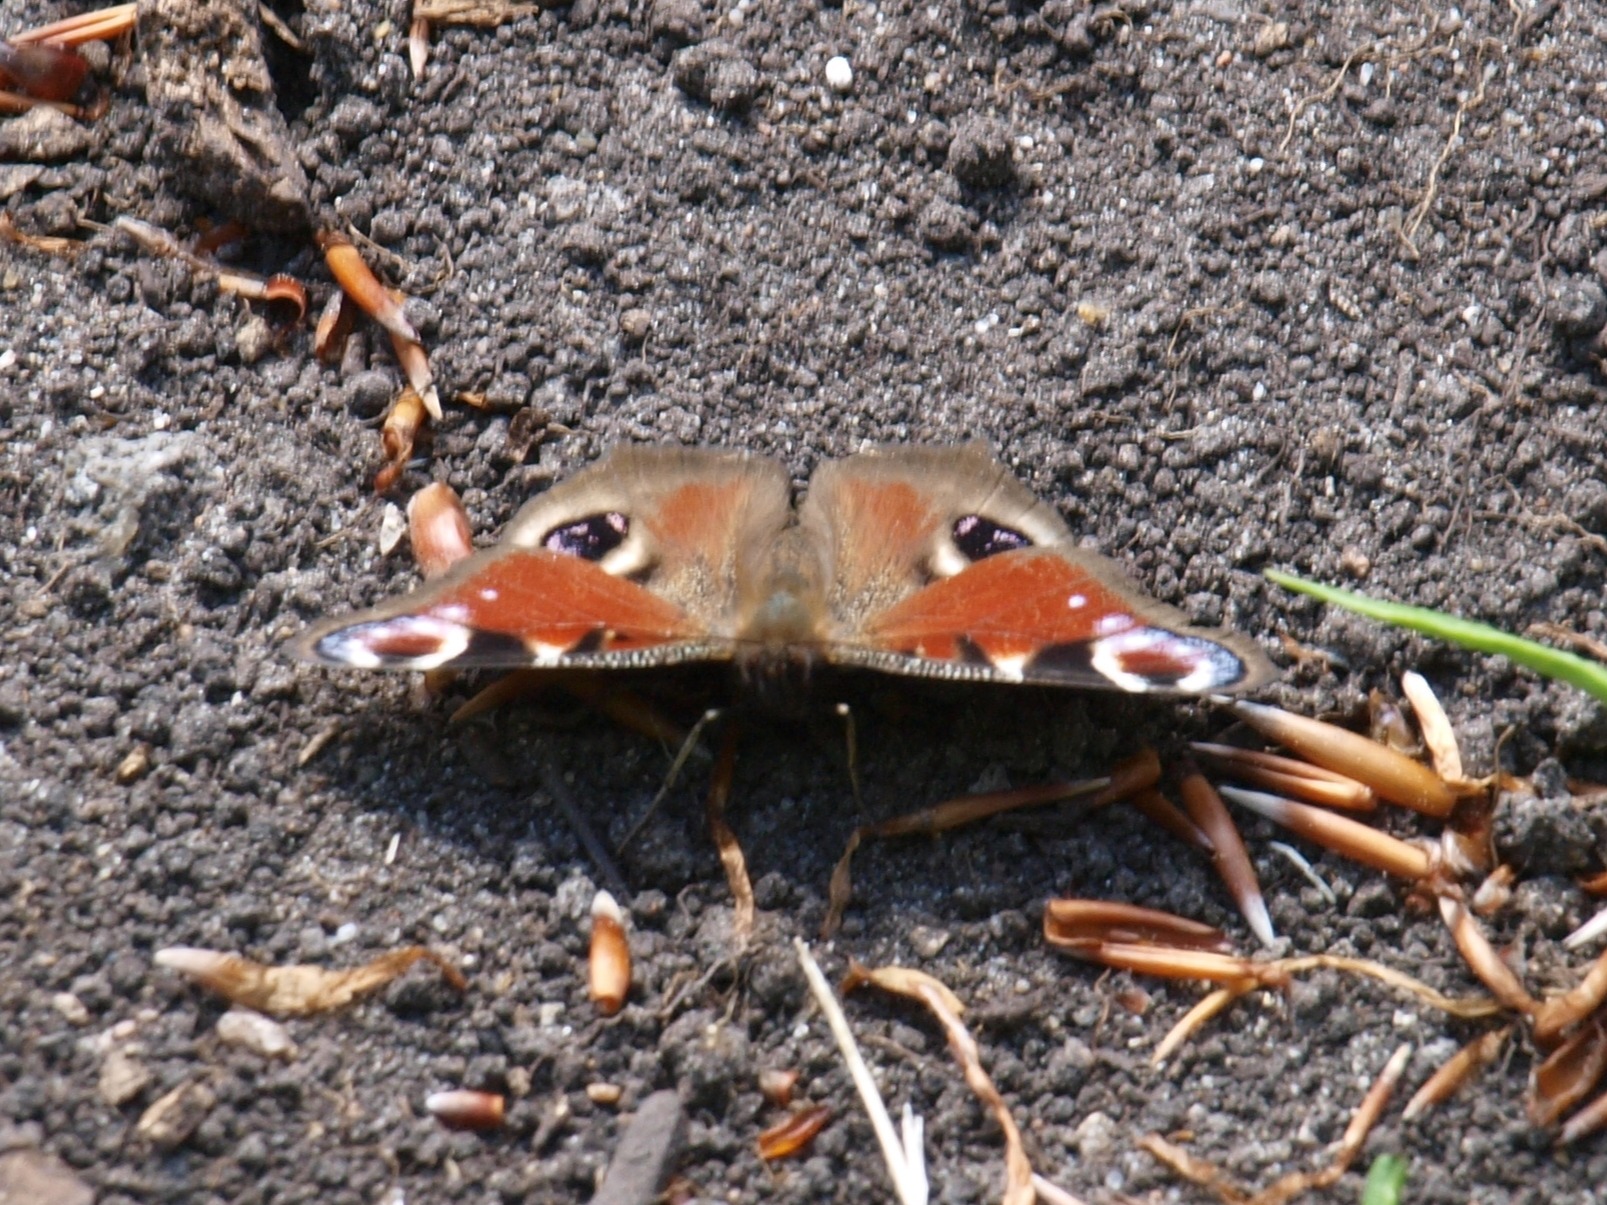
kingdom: Animalia
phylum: Arthropoda
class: Insecta
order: Lepidoptera
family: Nymphalidae
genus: Aglais
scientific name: Aglais io
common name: Dagpåfugleøje
